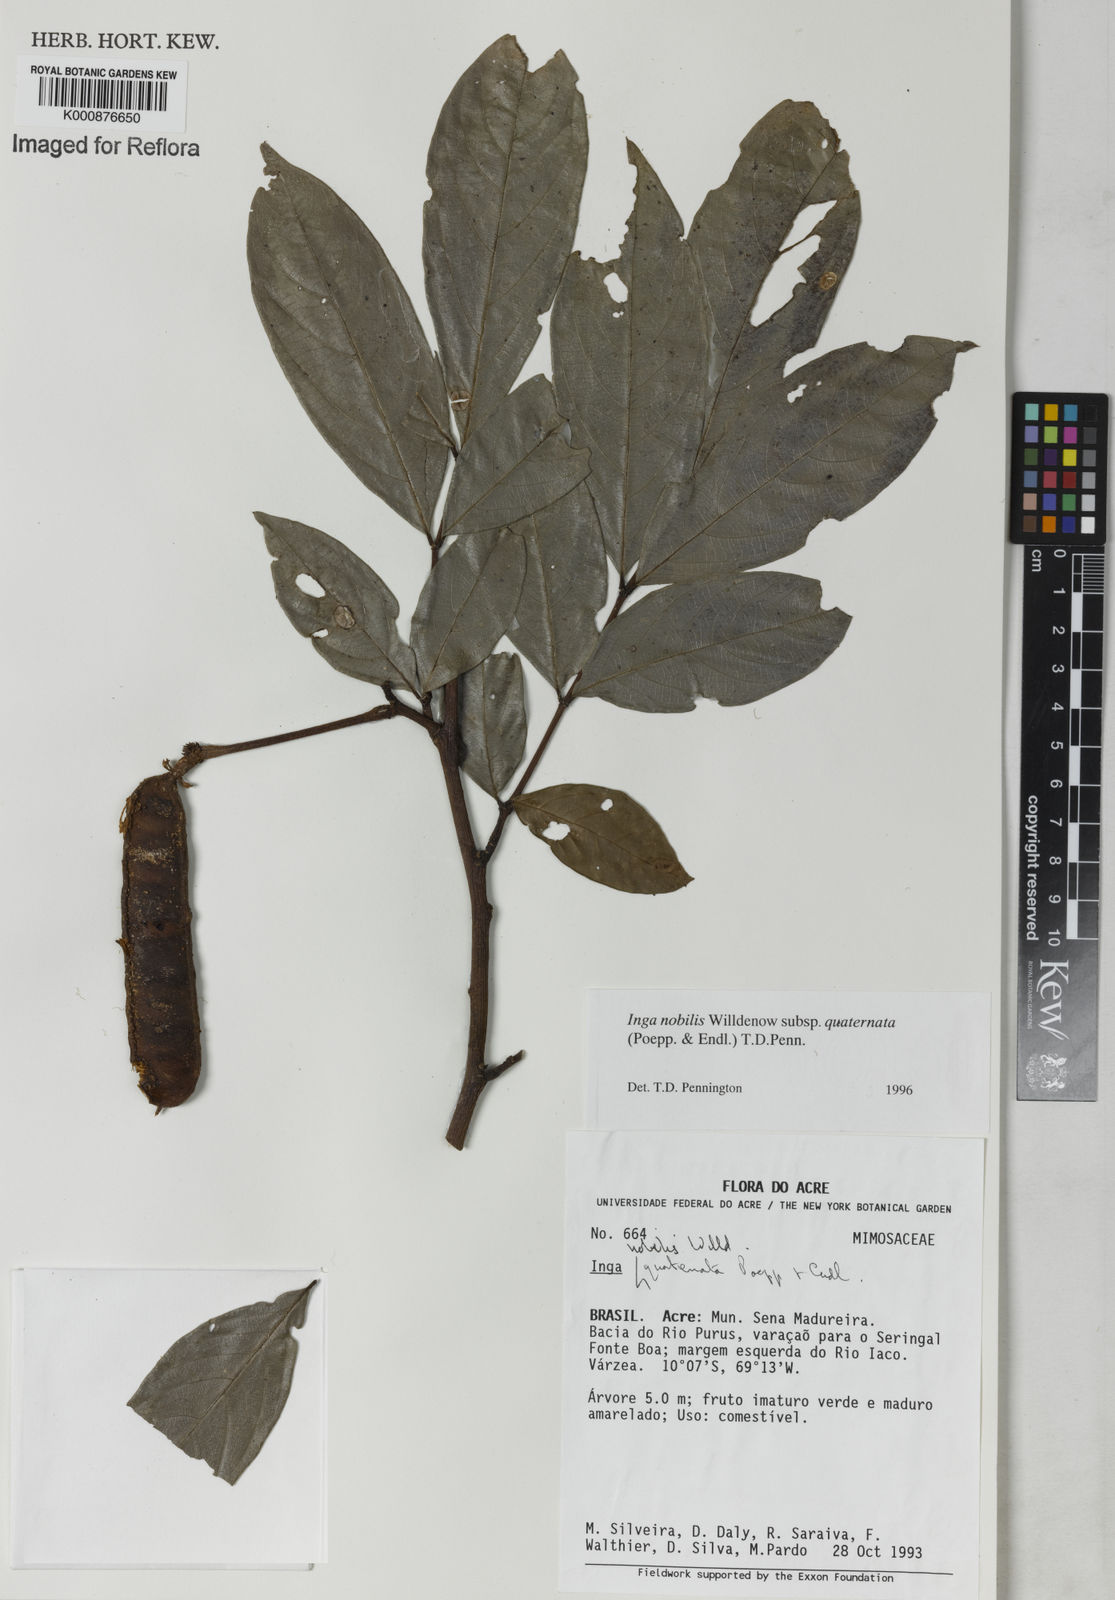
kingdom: Plantae
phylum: Tracheophyta
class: Magnoliopsida
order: Fabales
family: Fabaceae
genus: Inga
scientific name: Inga nobilis
